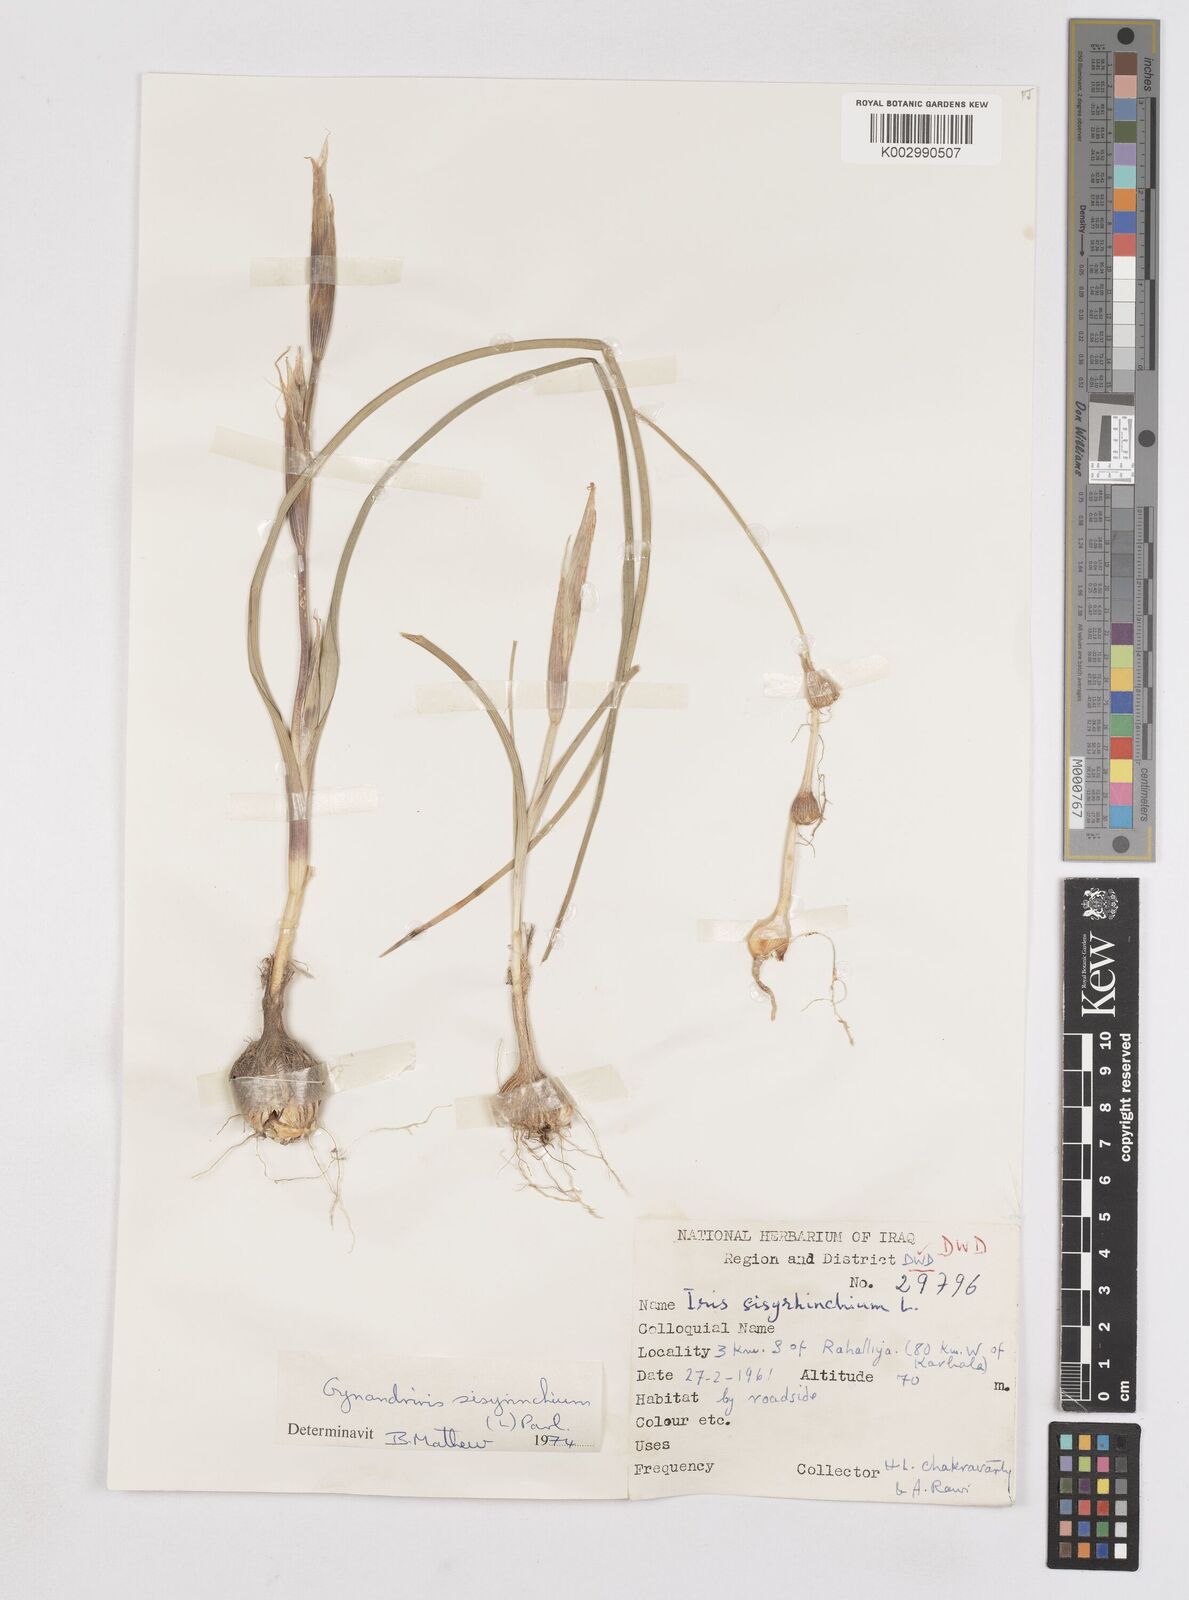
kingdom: Plantae
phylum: Tracheophyta
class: Liliopsida
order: Asparagales
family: Iridaceae
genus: Moraea
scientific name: Moraea sisyrinchium
